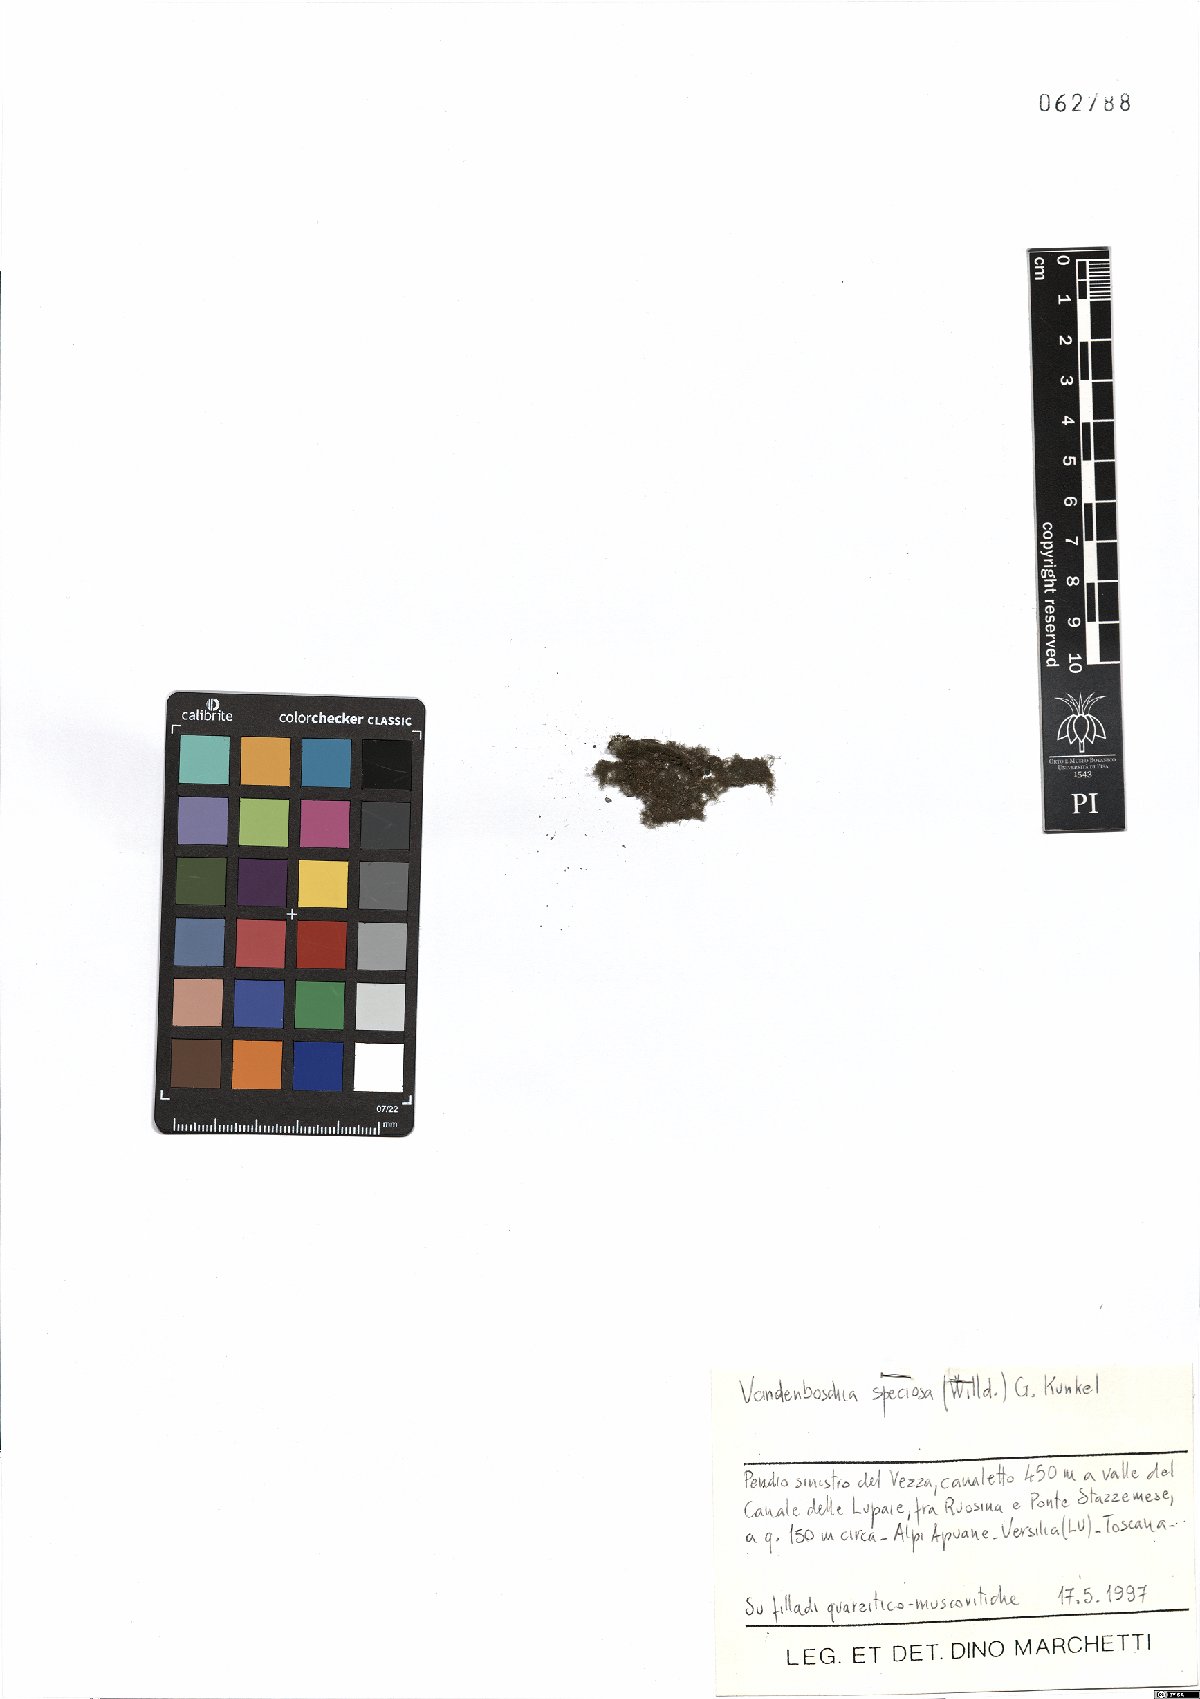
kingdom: Plantae
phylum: Tracheophyta
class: Polypodiopsida
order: Hymenophyllales
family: Hymenophyllaceae
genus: Vandenboschia
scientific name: Vandenboschia speciosa
